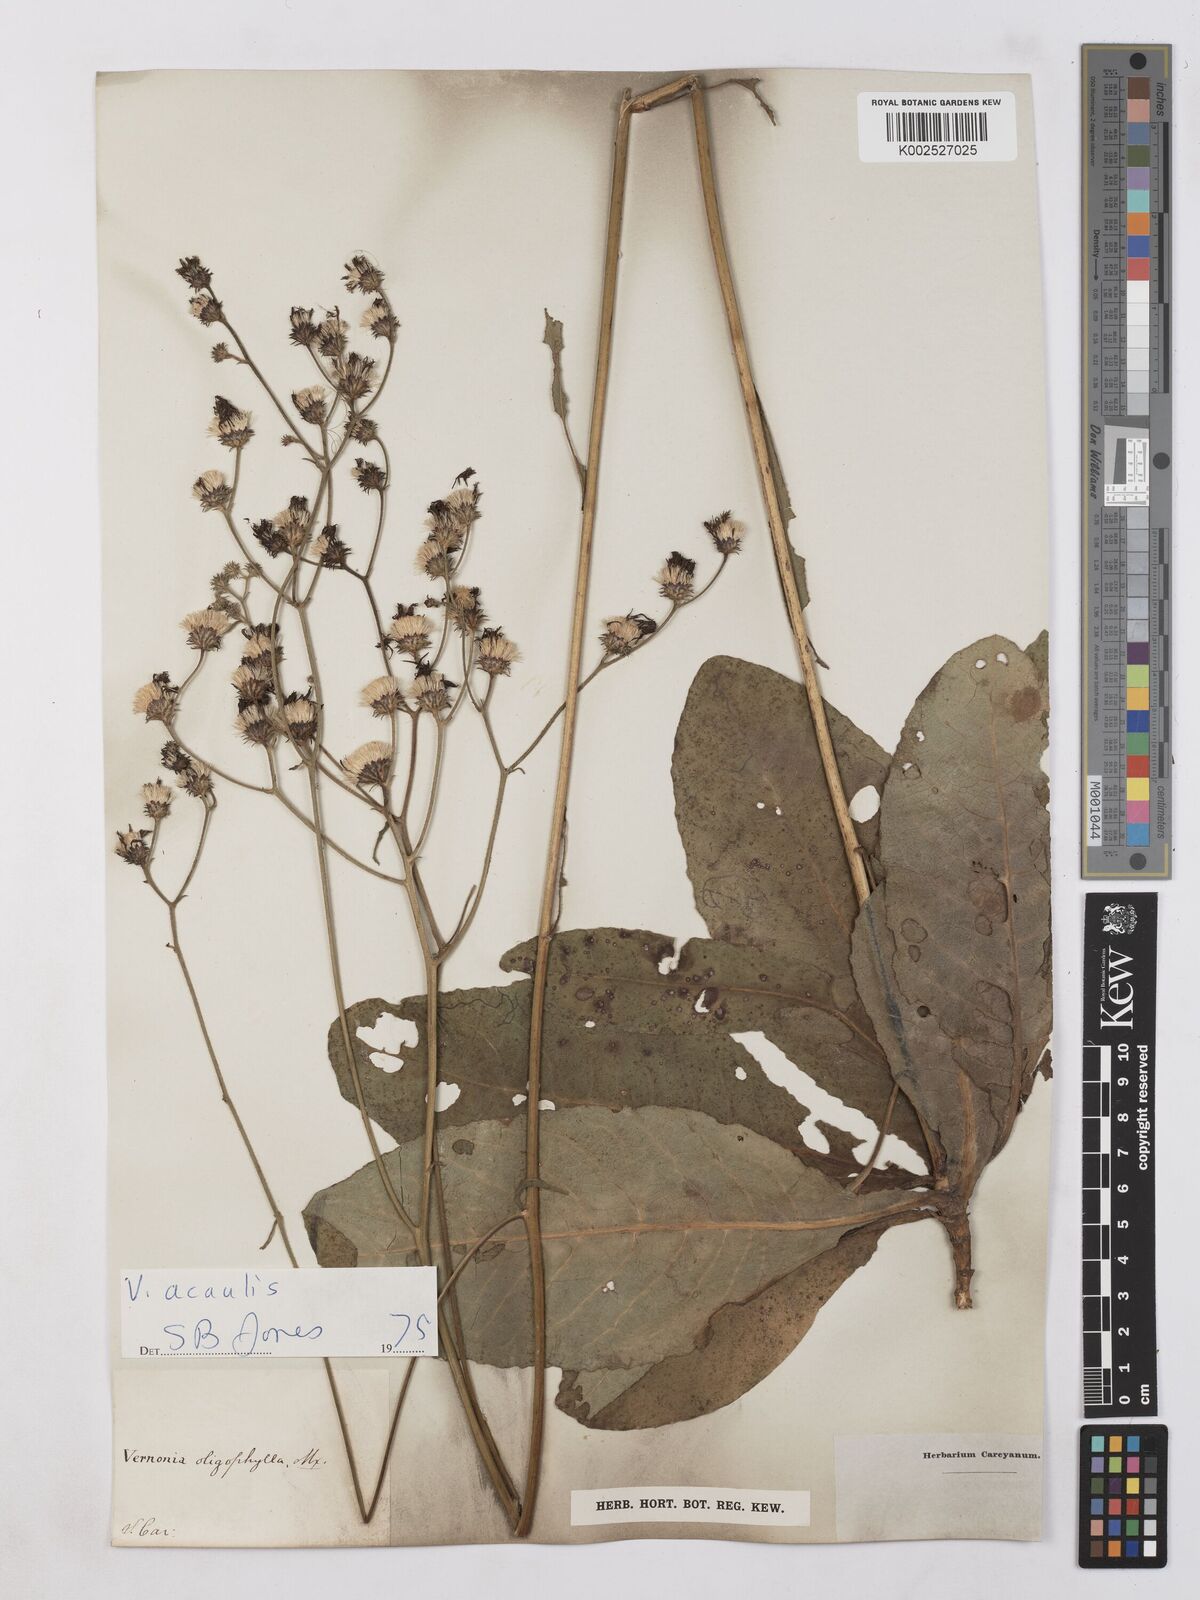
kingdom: Plantae
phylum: Tracheophyta
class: Magnoliopsida
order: Asterales
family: Asteraceae
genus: Vernonia
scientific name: Vernonia acaulis
